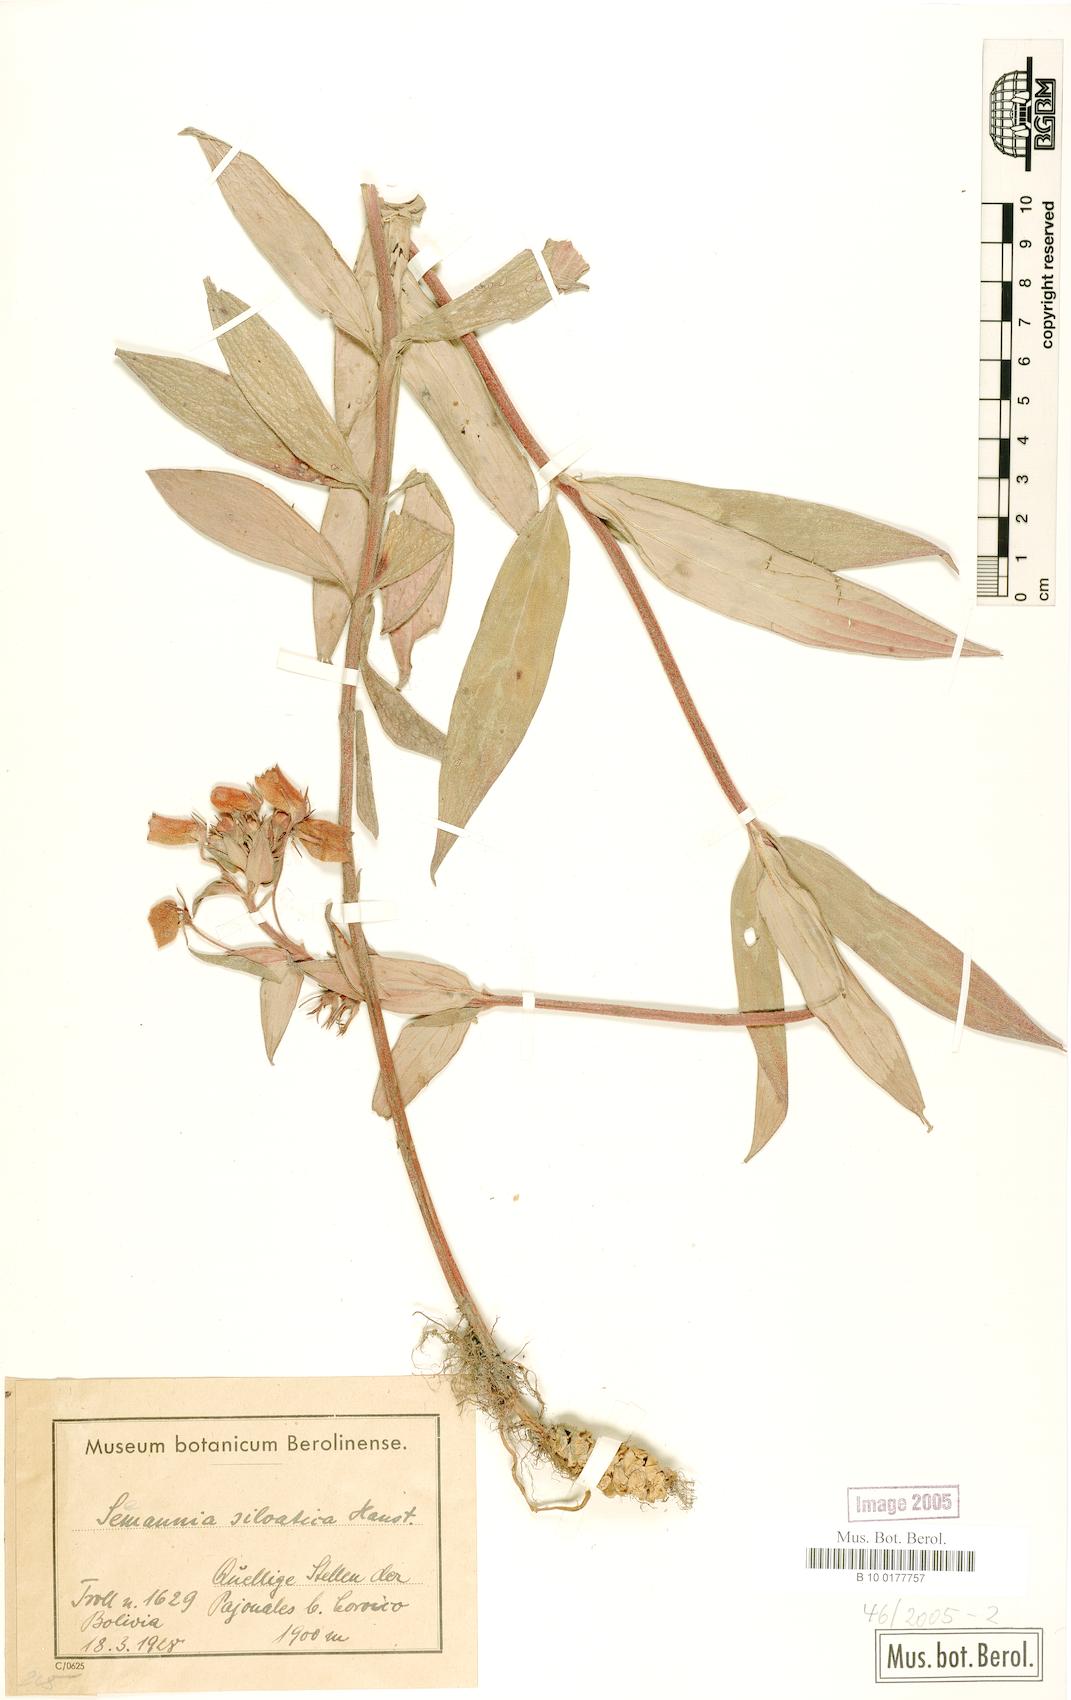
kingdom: Plantae
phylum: Tracheophyta
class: Magnoliopsida
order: Lamiales
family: Gesneriaceae
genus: Seemannia
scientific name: Seemannia sylvatica
